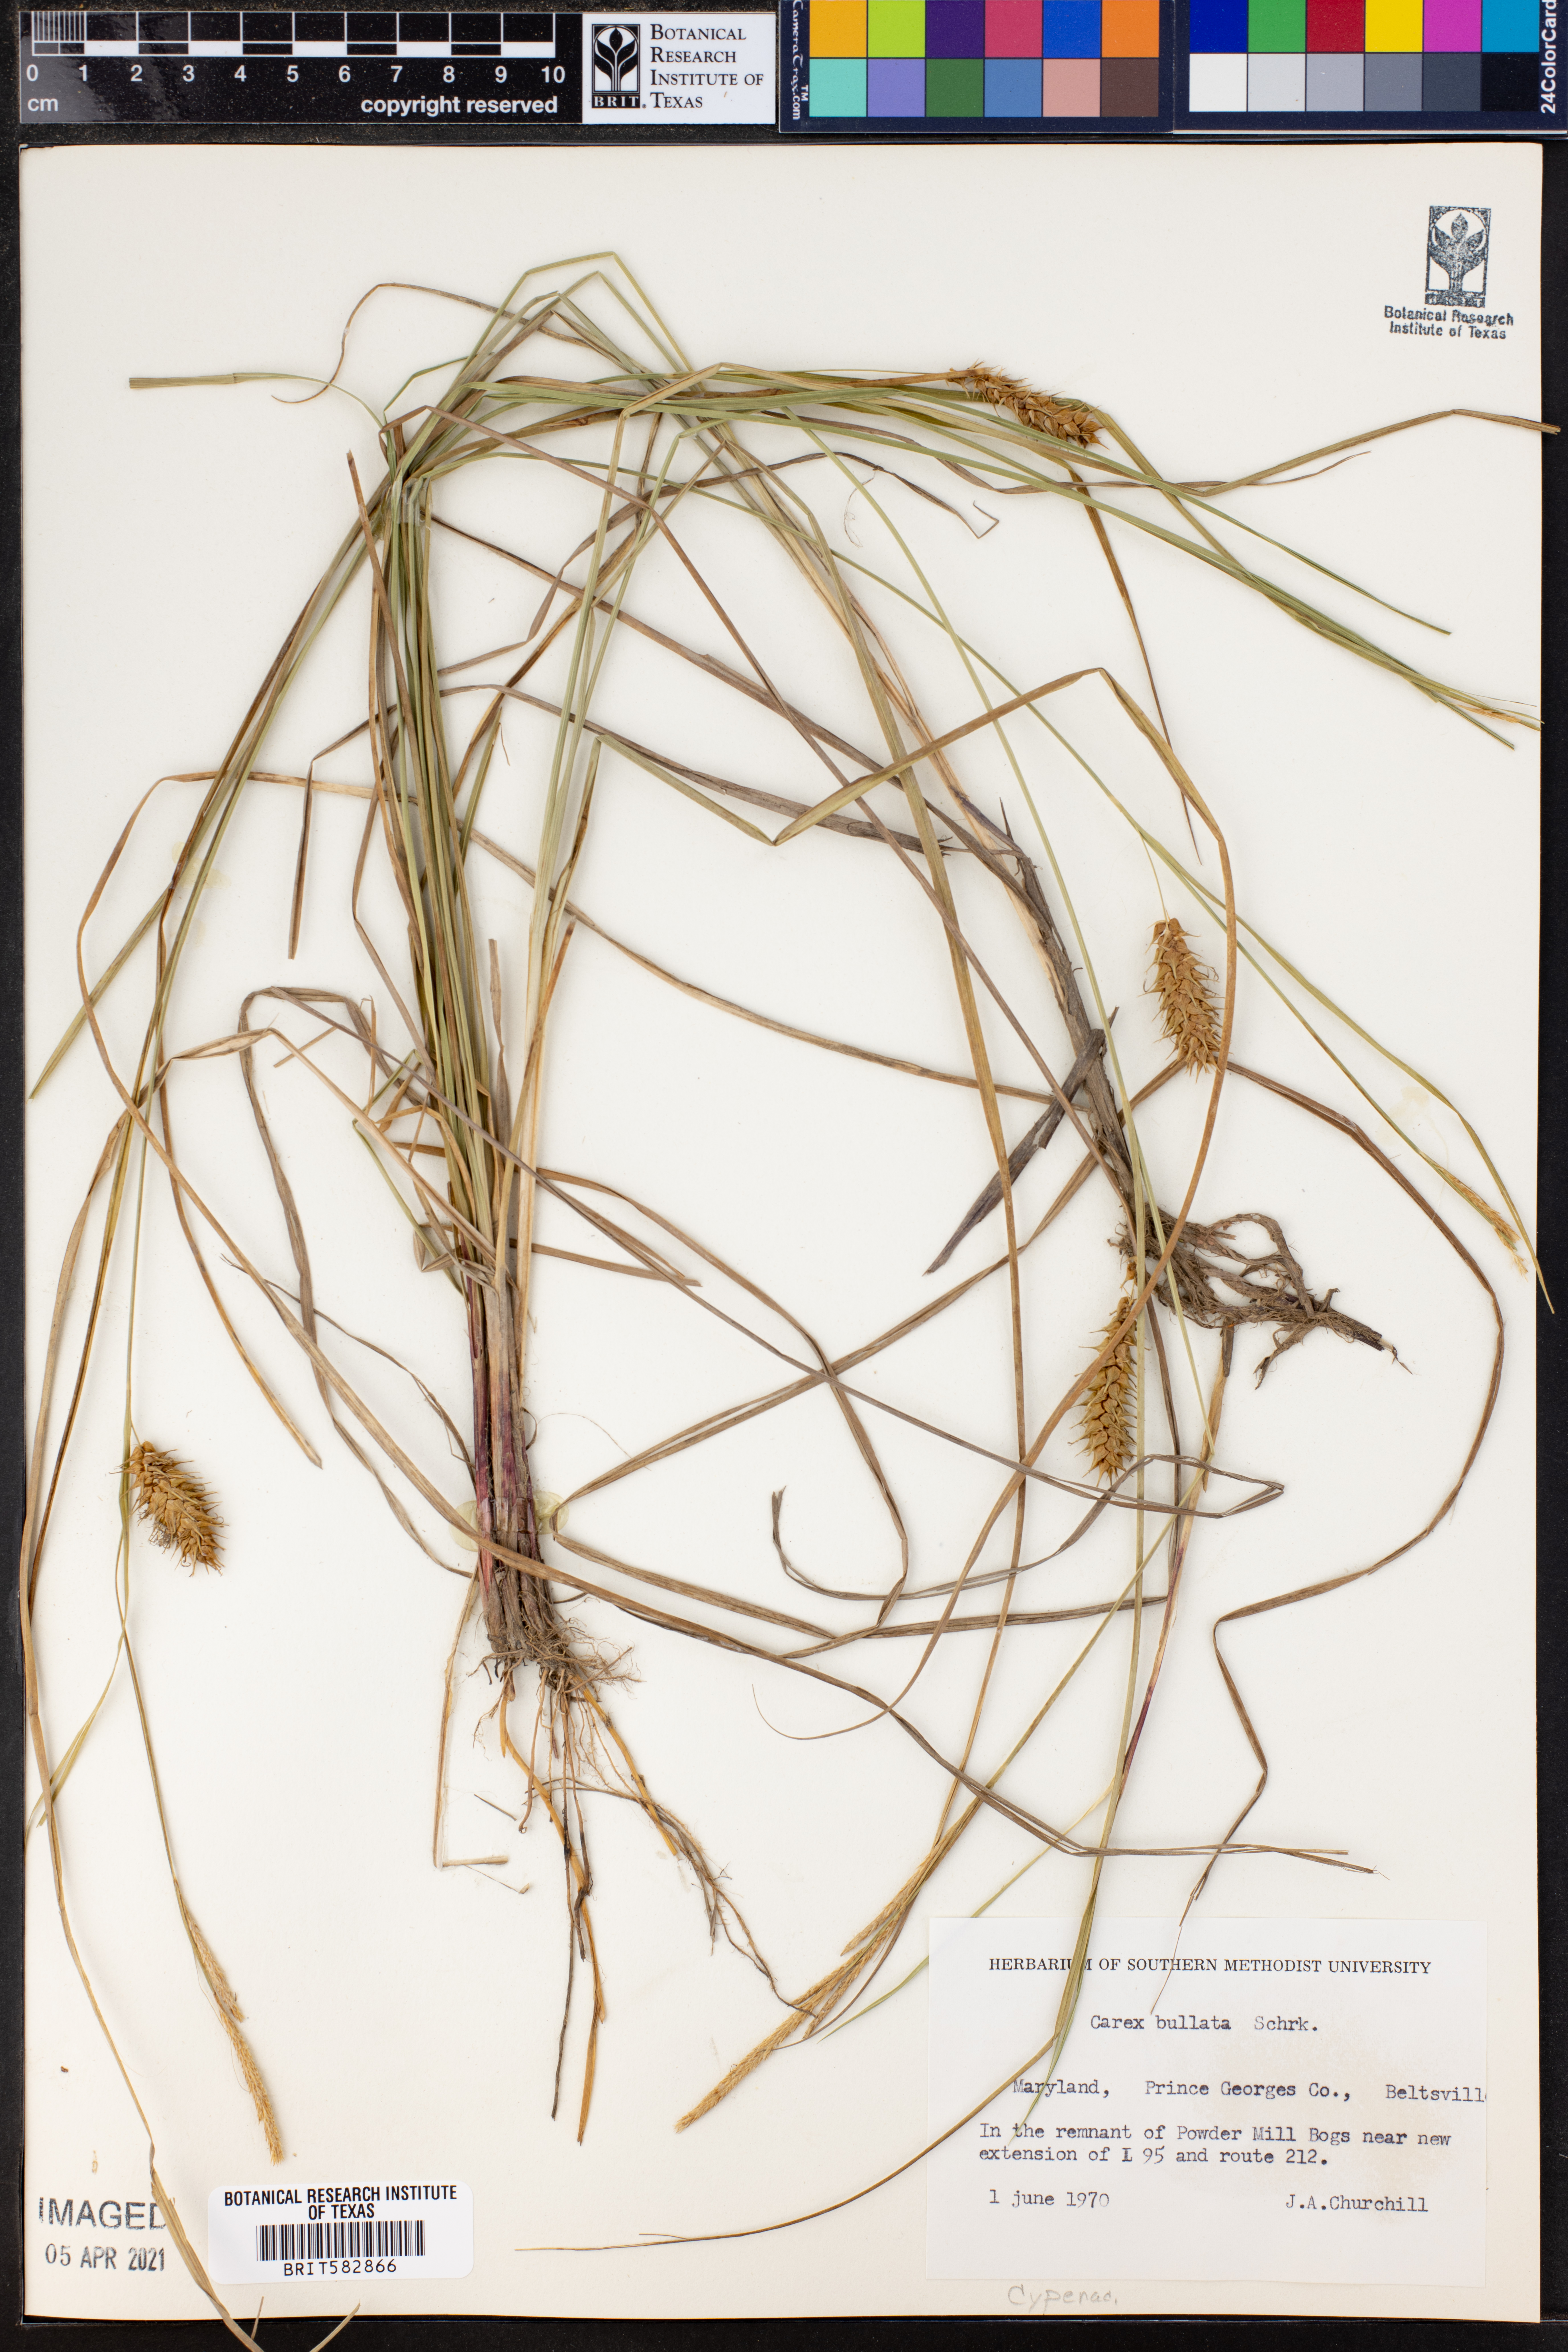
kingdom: Plantae
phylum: Tracheophyta
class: Liliopsida
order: Poales
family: Cyperaceae
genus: Carex
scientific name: Carex bullata
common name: Button sedge
